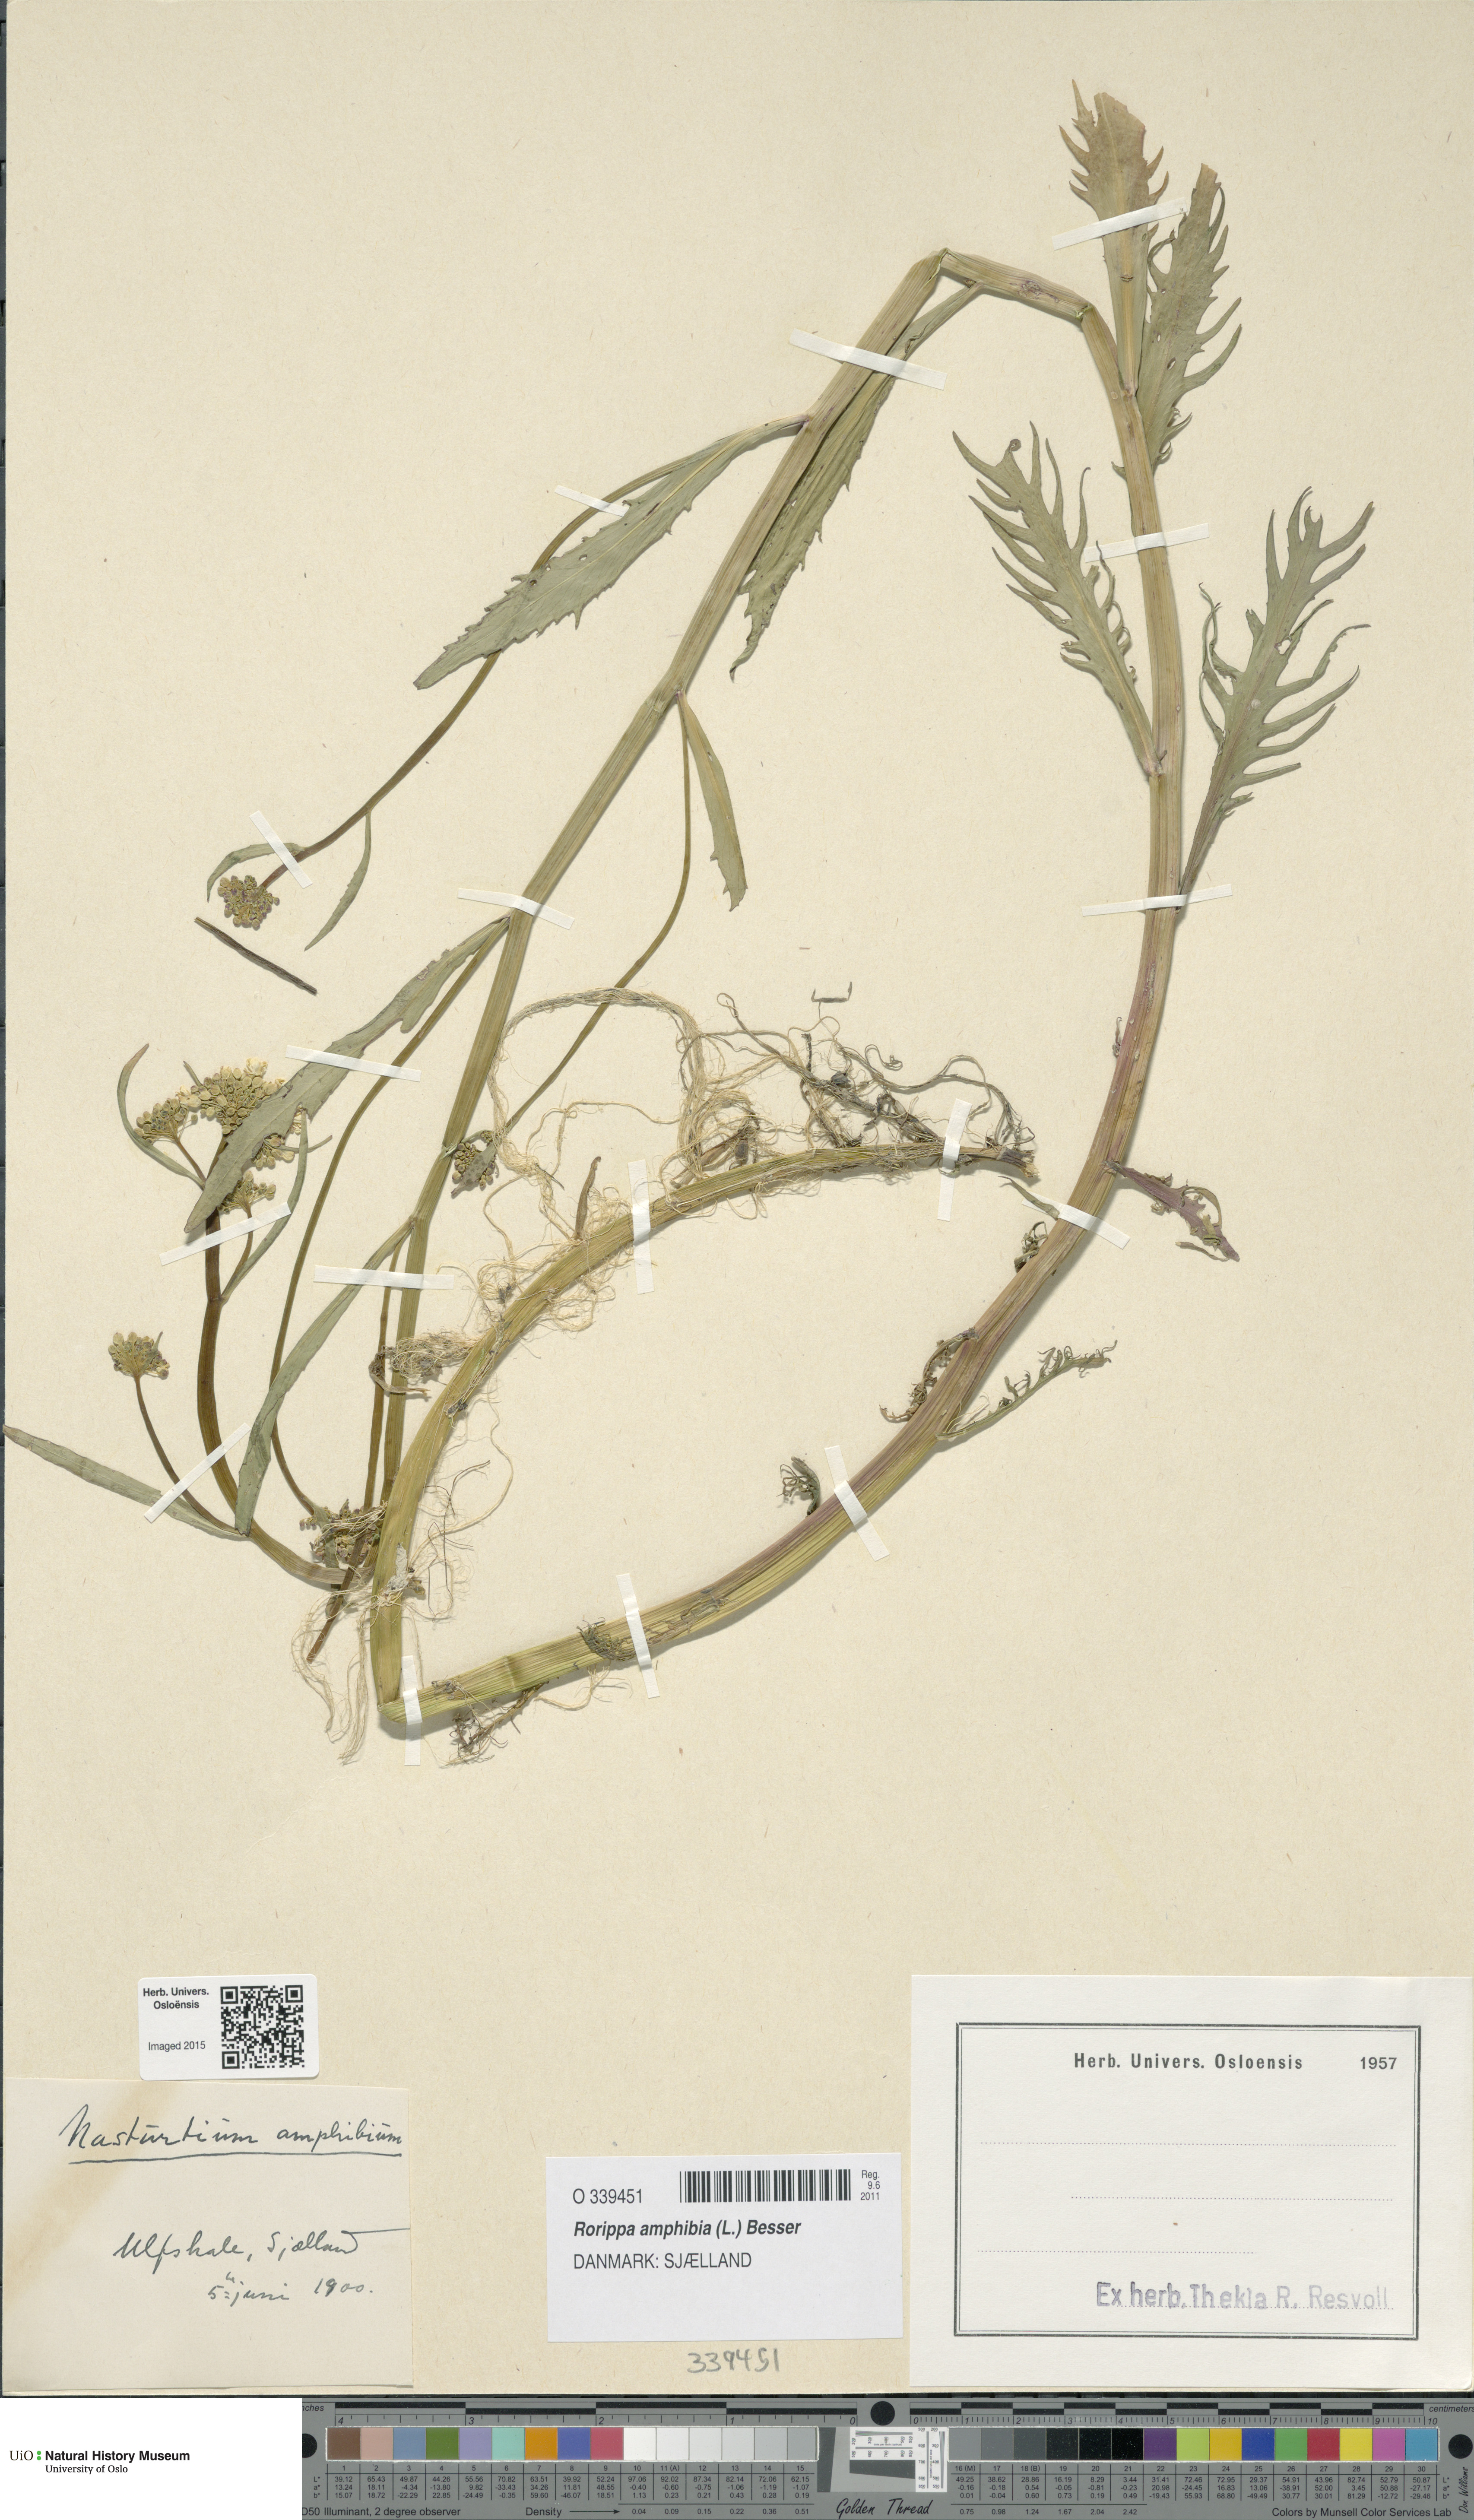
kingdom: Plantae
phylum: Tracheophyta
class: Magnoliopsida
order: Brassicales
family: Brassicaceae
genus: Rorippa
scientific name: Rorippa amphibia
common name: Great yellow-cress
